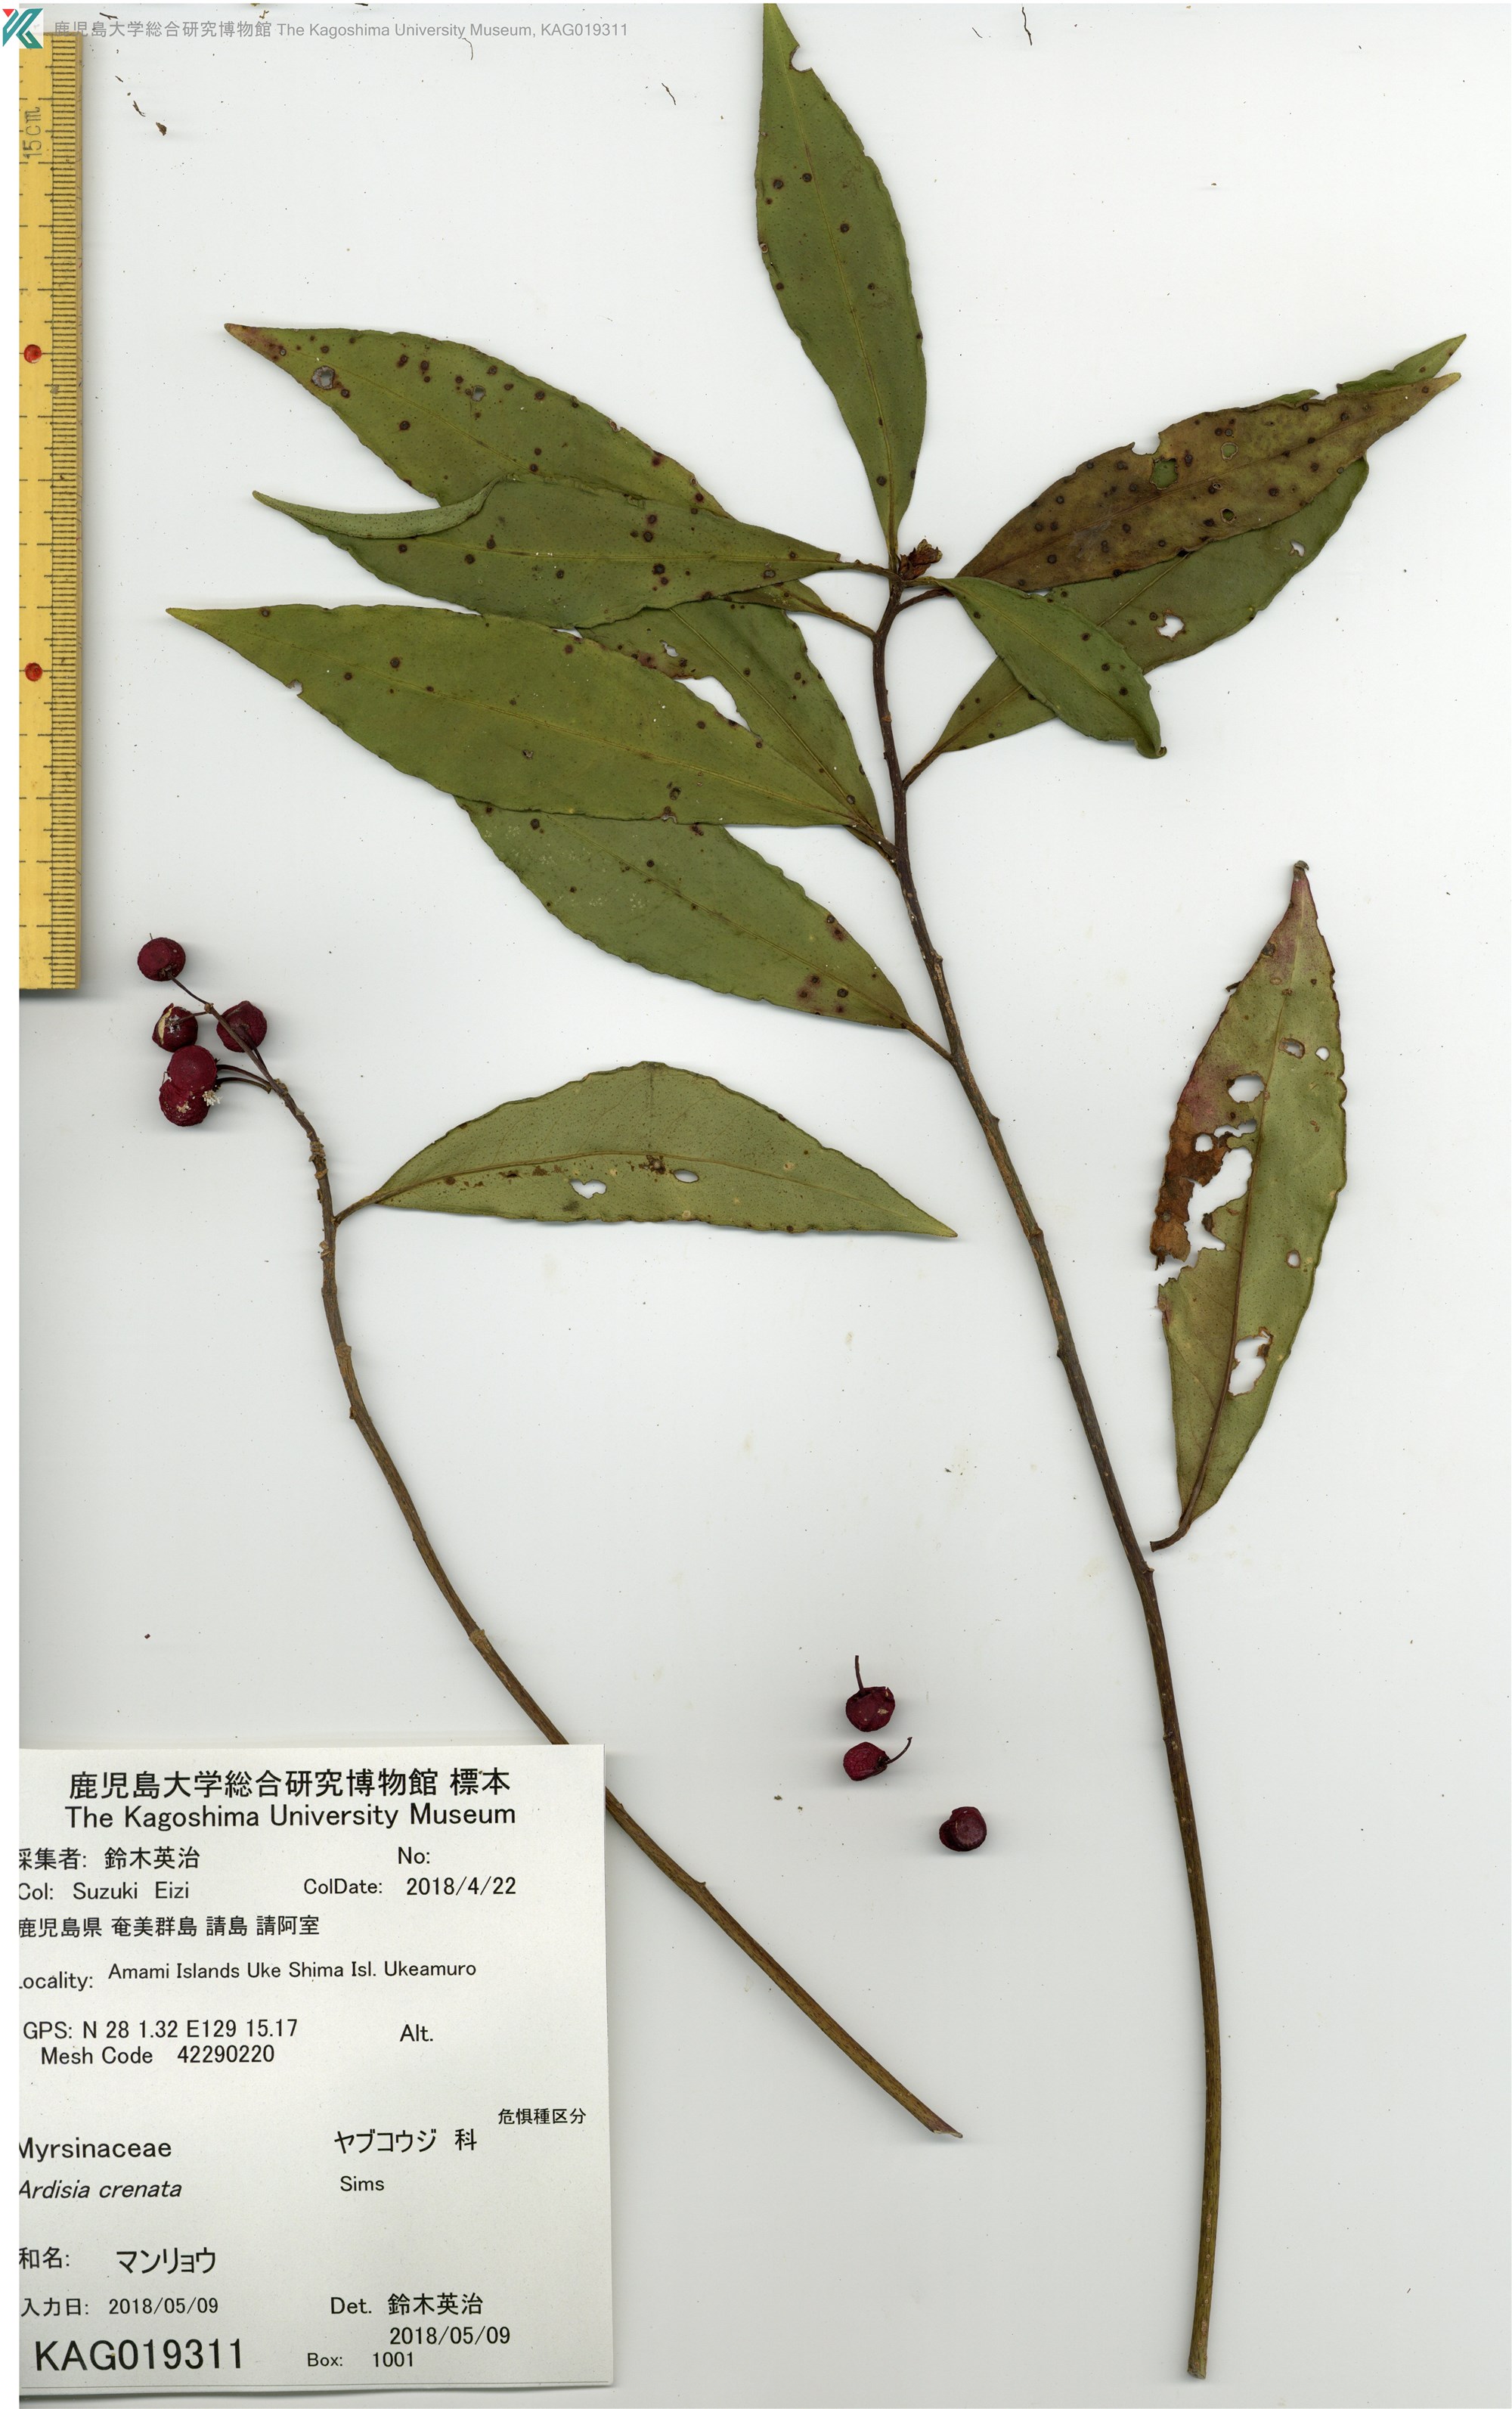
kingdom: Plantae
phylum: Tracheophyta
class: Magnoliopsida
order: Ericales
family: Primulaceae
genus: Ardisia
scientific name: Ardisia crenata
